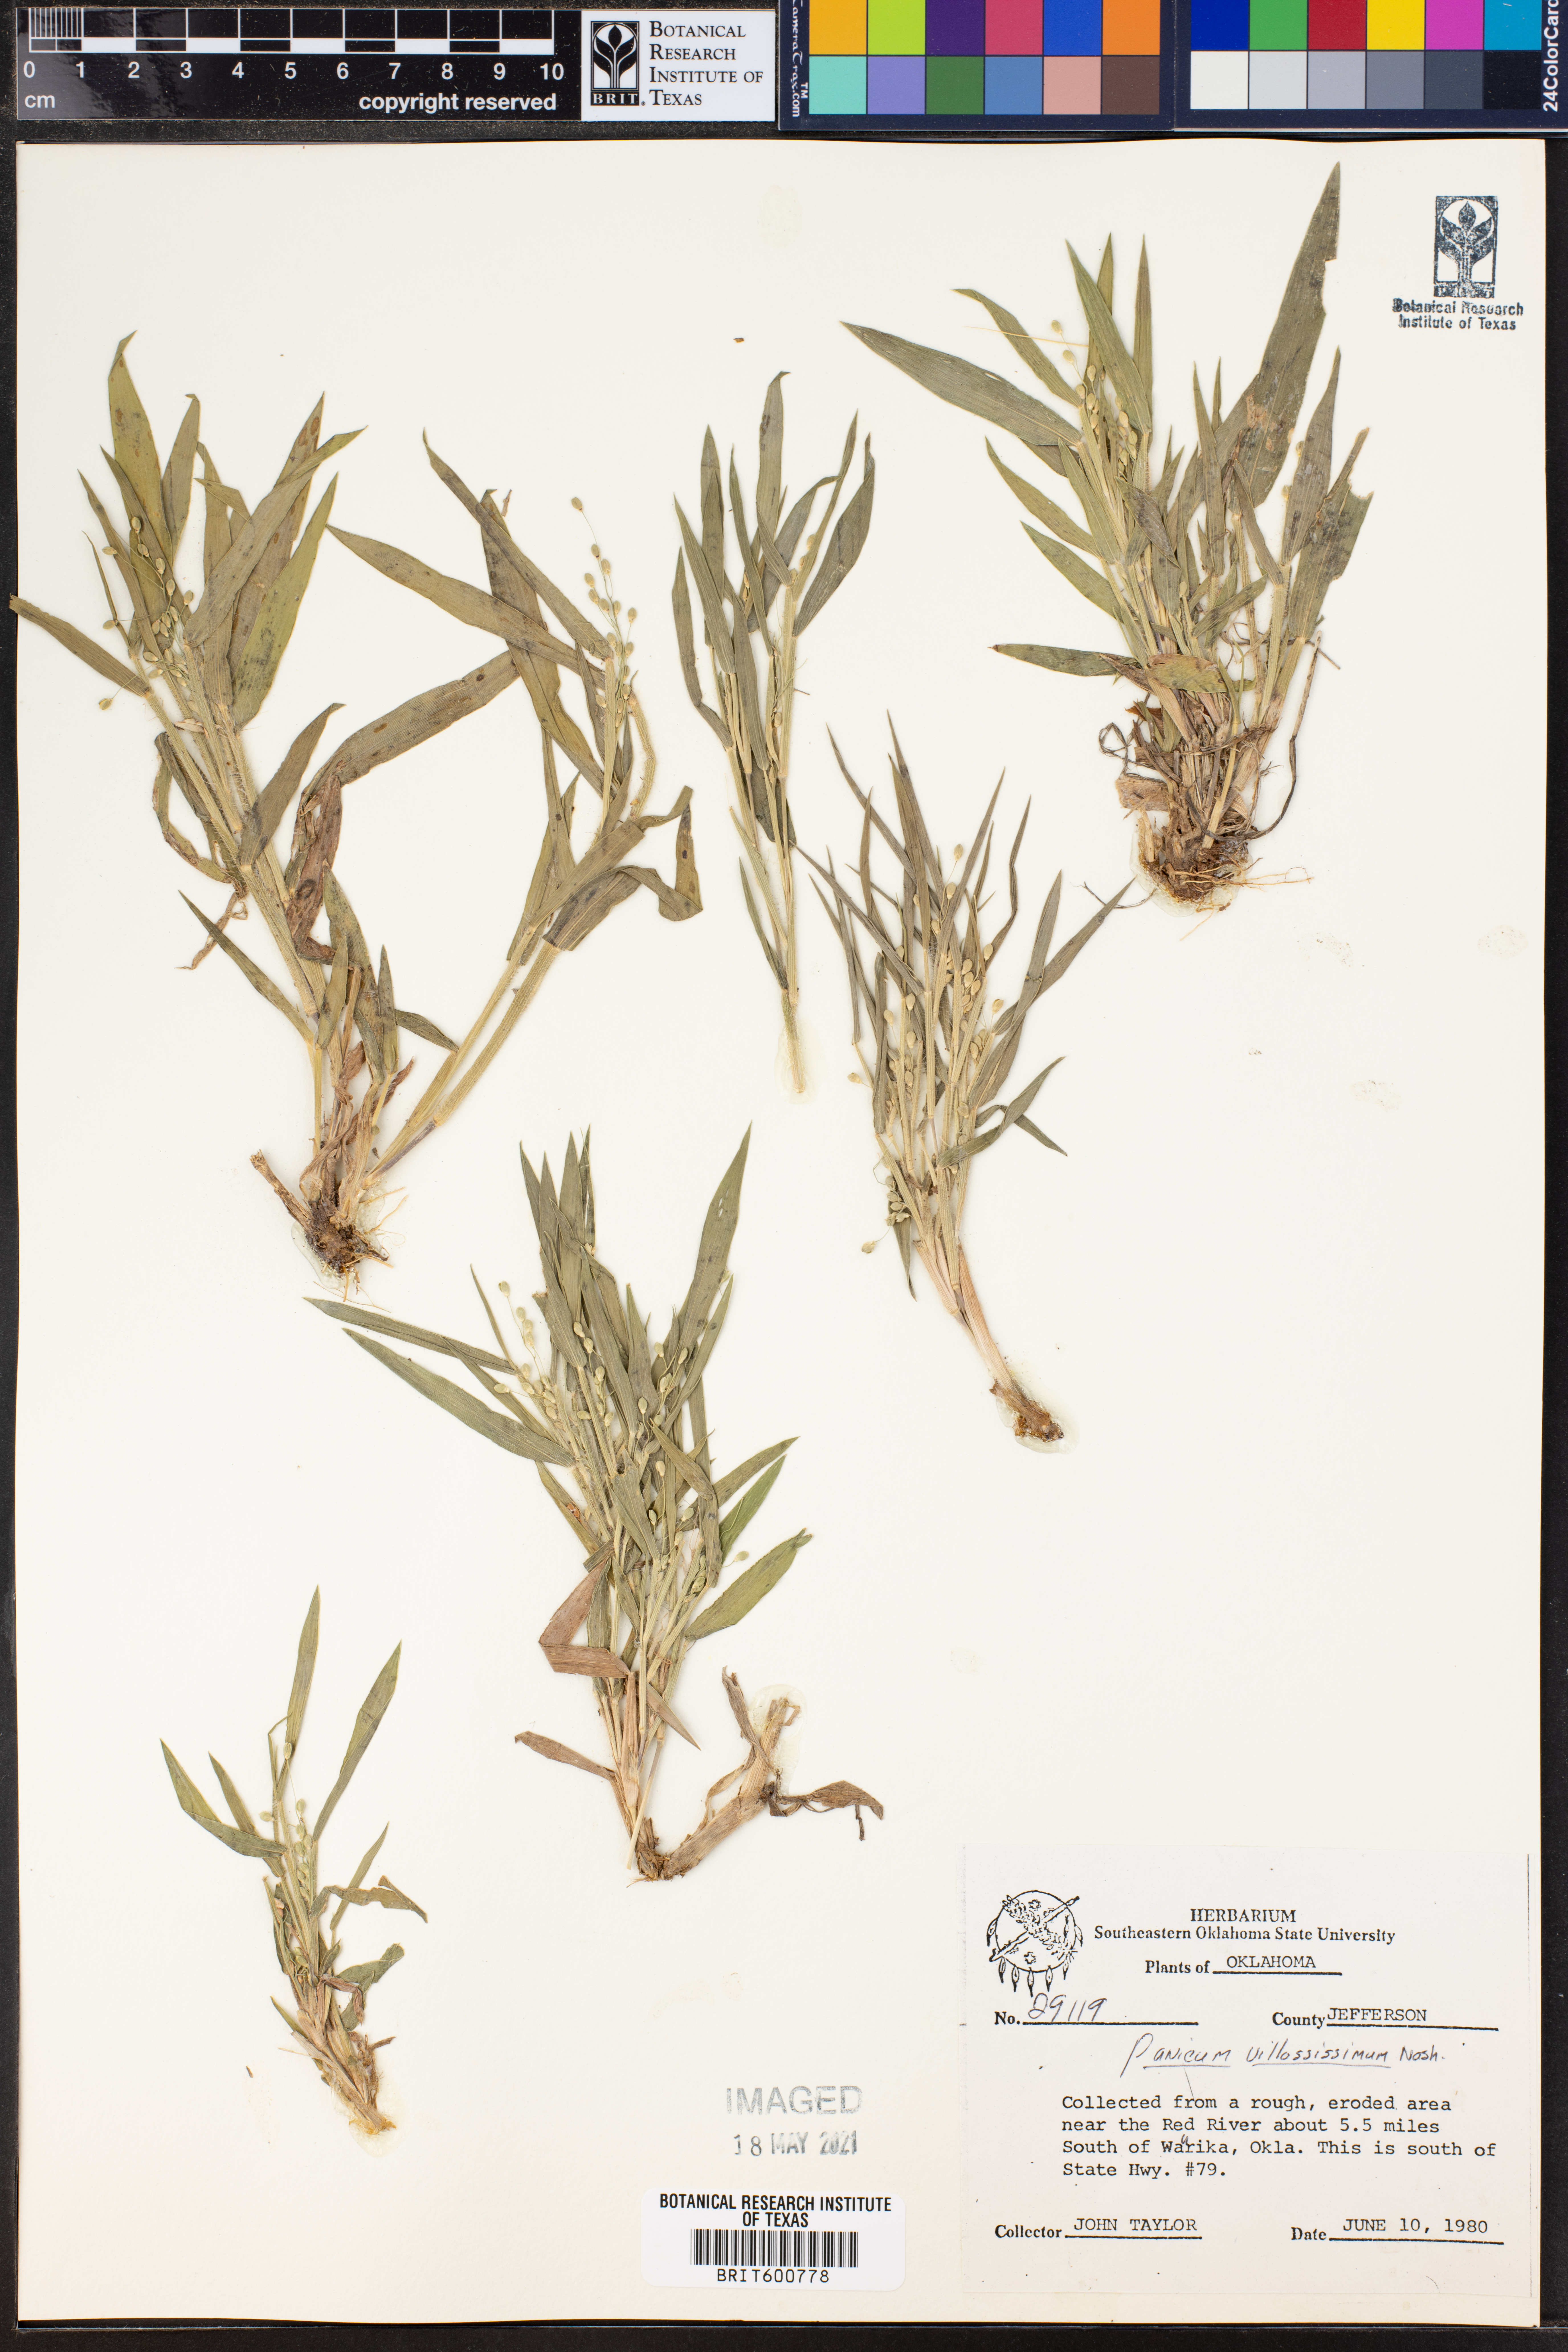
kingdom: Plantae
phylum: Tracheophyta
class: Liliopsida
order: Poales
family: Poaceae
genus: Dichanthelium
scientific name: Dichanthelium villosissimum
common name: White-haired panicgrass
